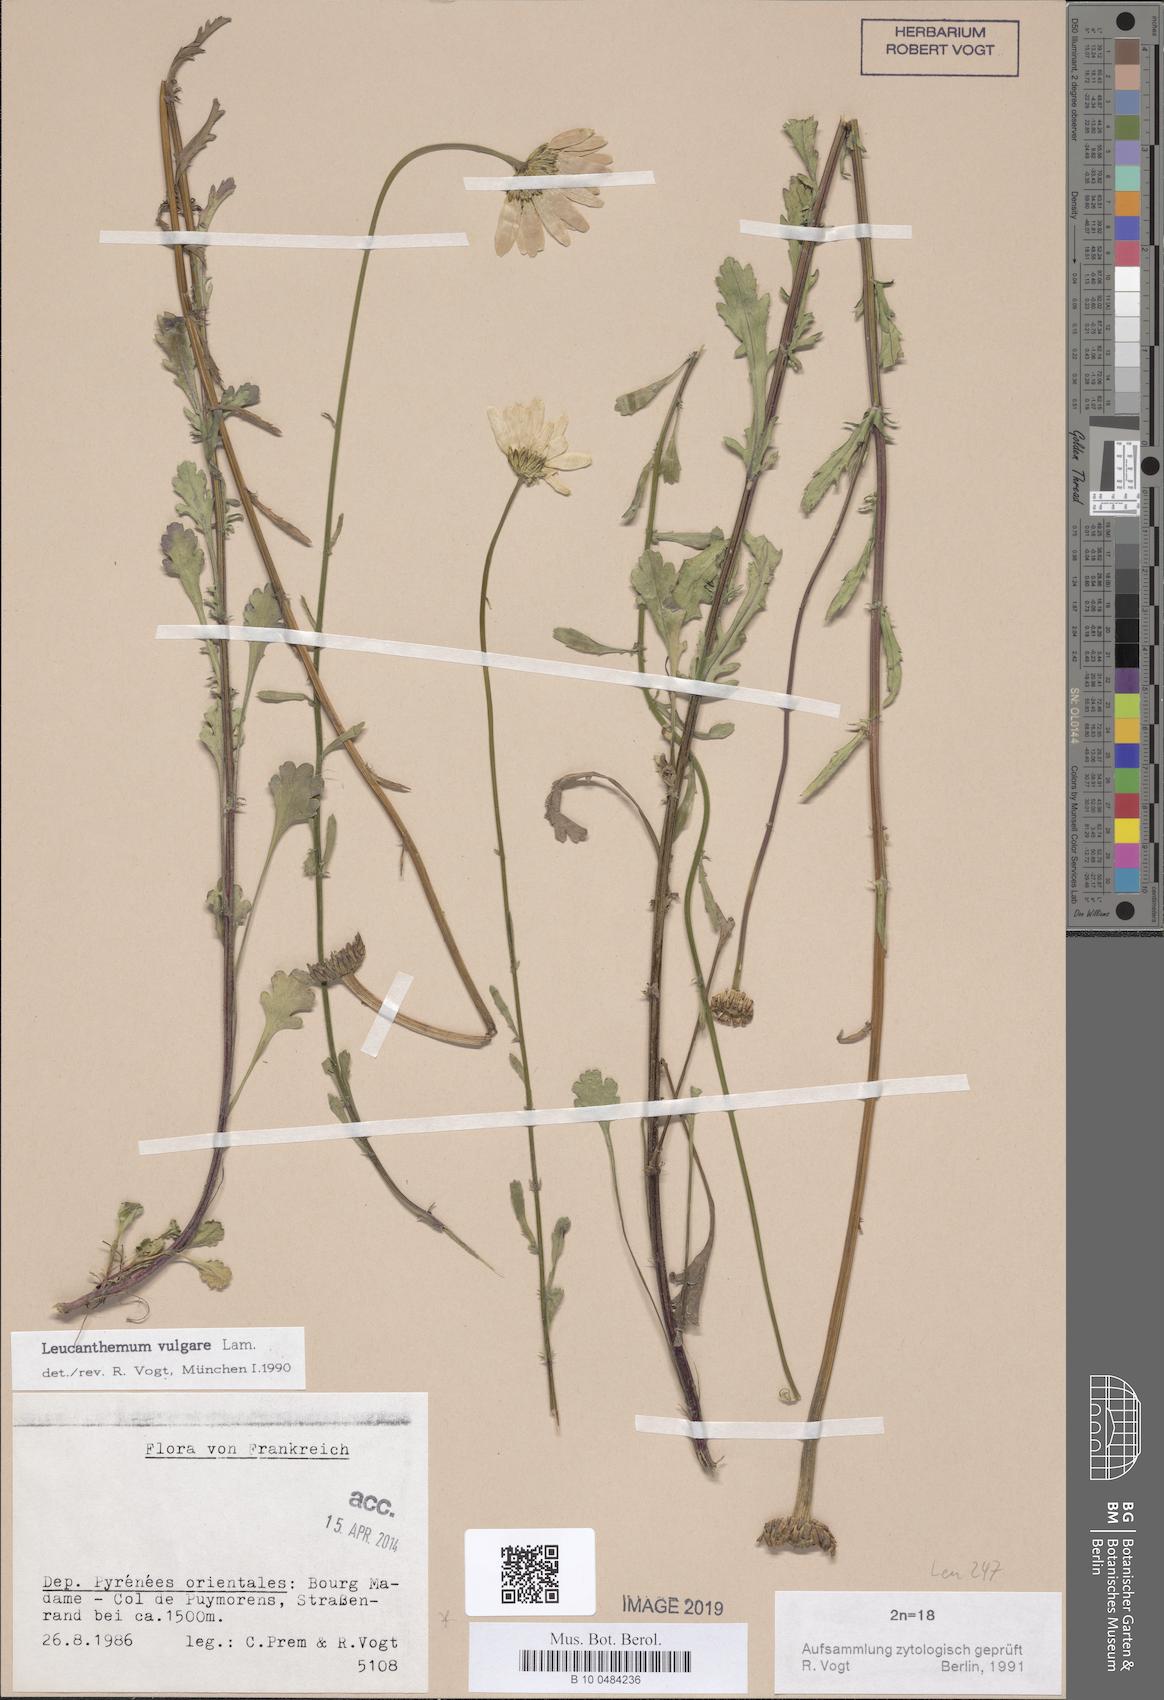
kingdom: Plantae
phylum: Tracheophyta
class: Magnoliopsida
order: Asterales
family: Asteraceae
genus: Leucanthemum
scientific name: Leucanthemum vulgare
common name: Oxeye daisy
